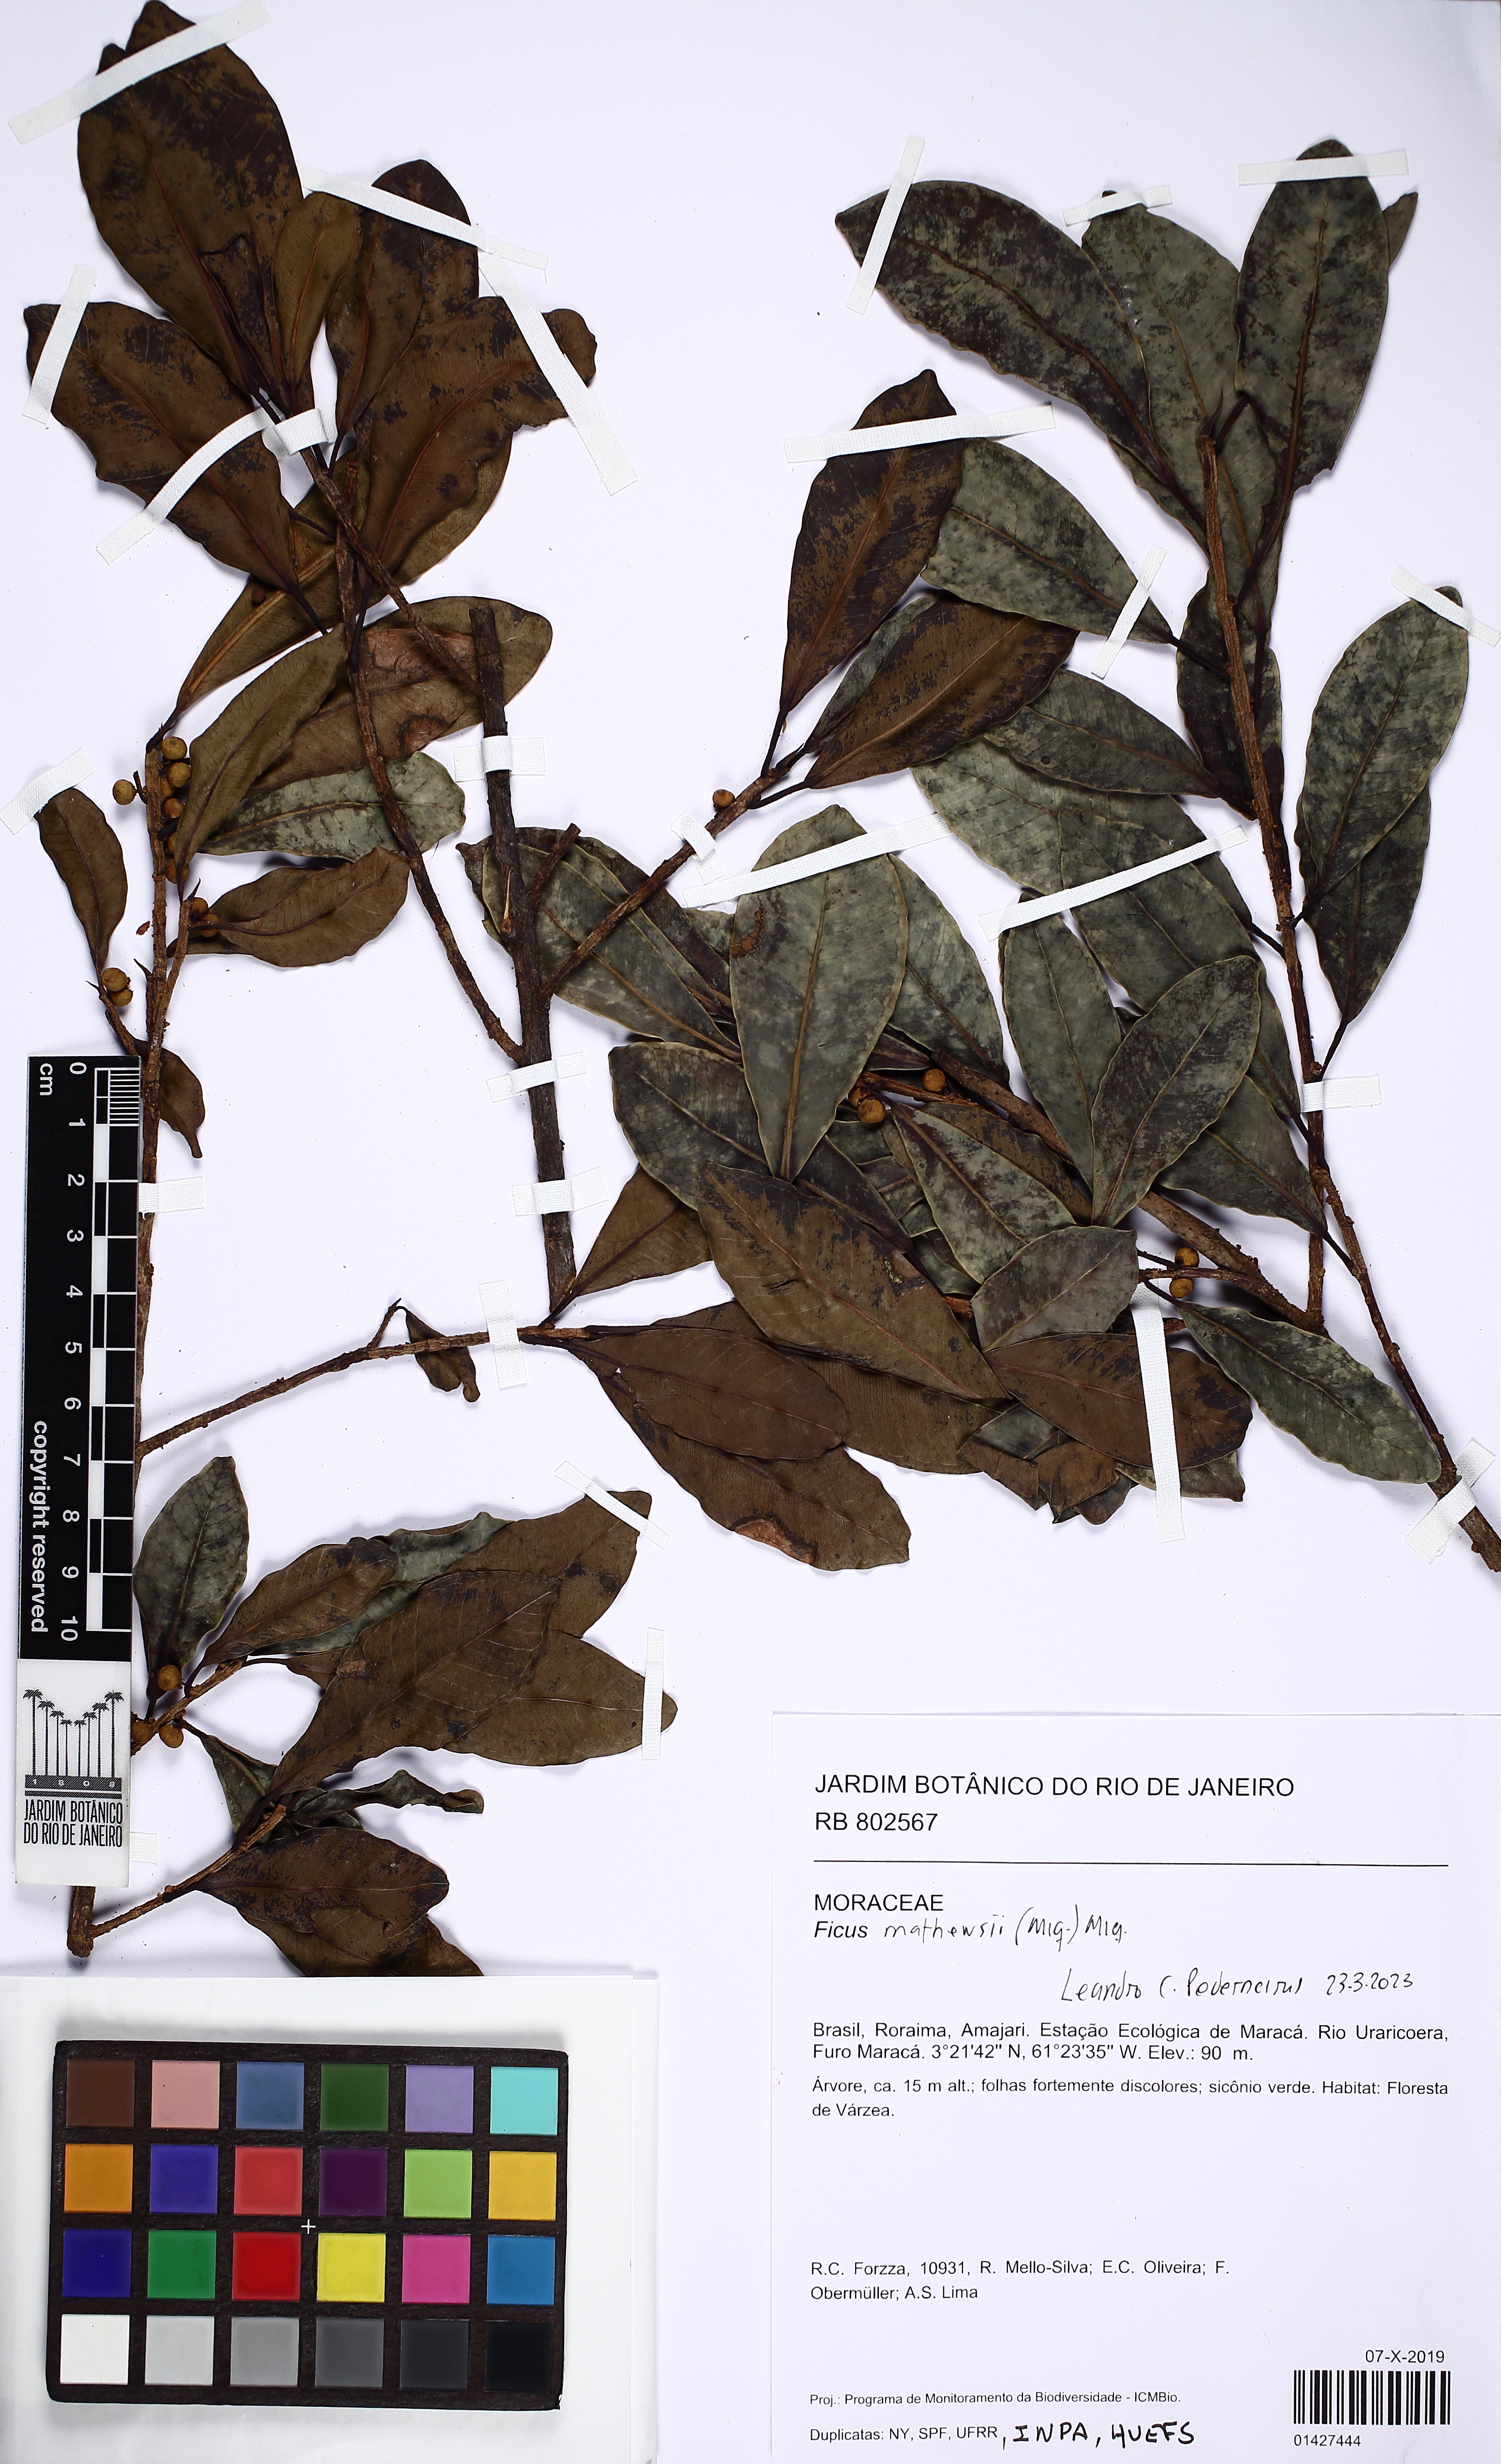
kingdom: Plantae
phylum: Tracheophyta
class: Magnoliopsida
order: Rosales
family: Moraceae
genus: Ficus
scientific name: Ficus mathewsii
